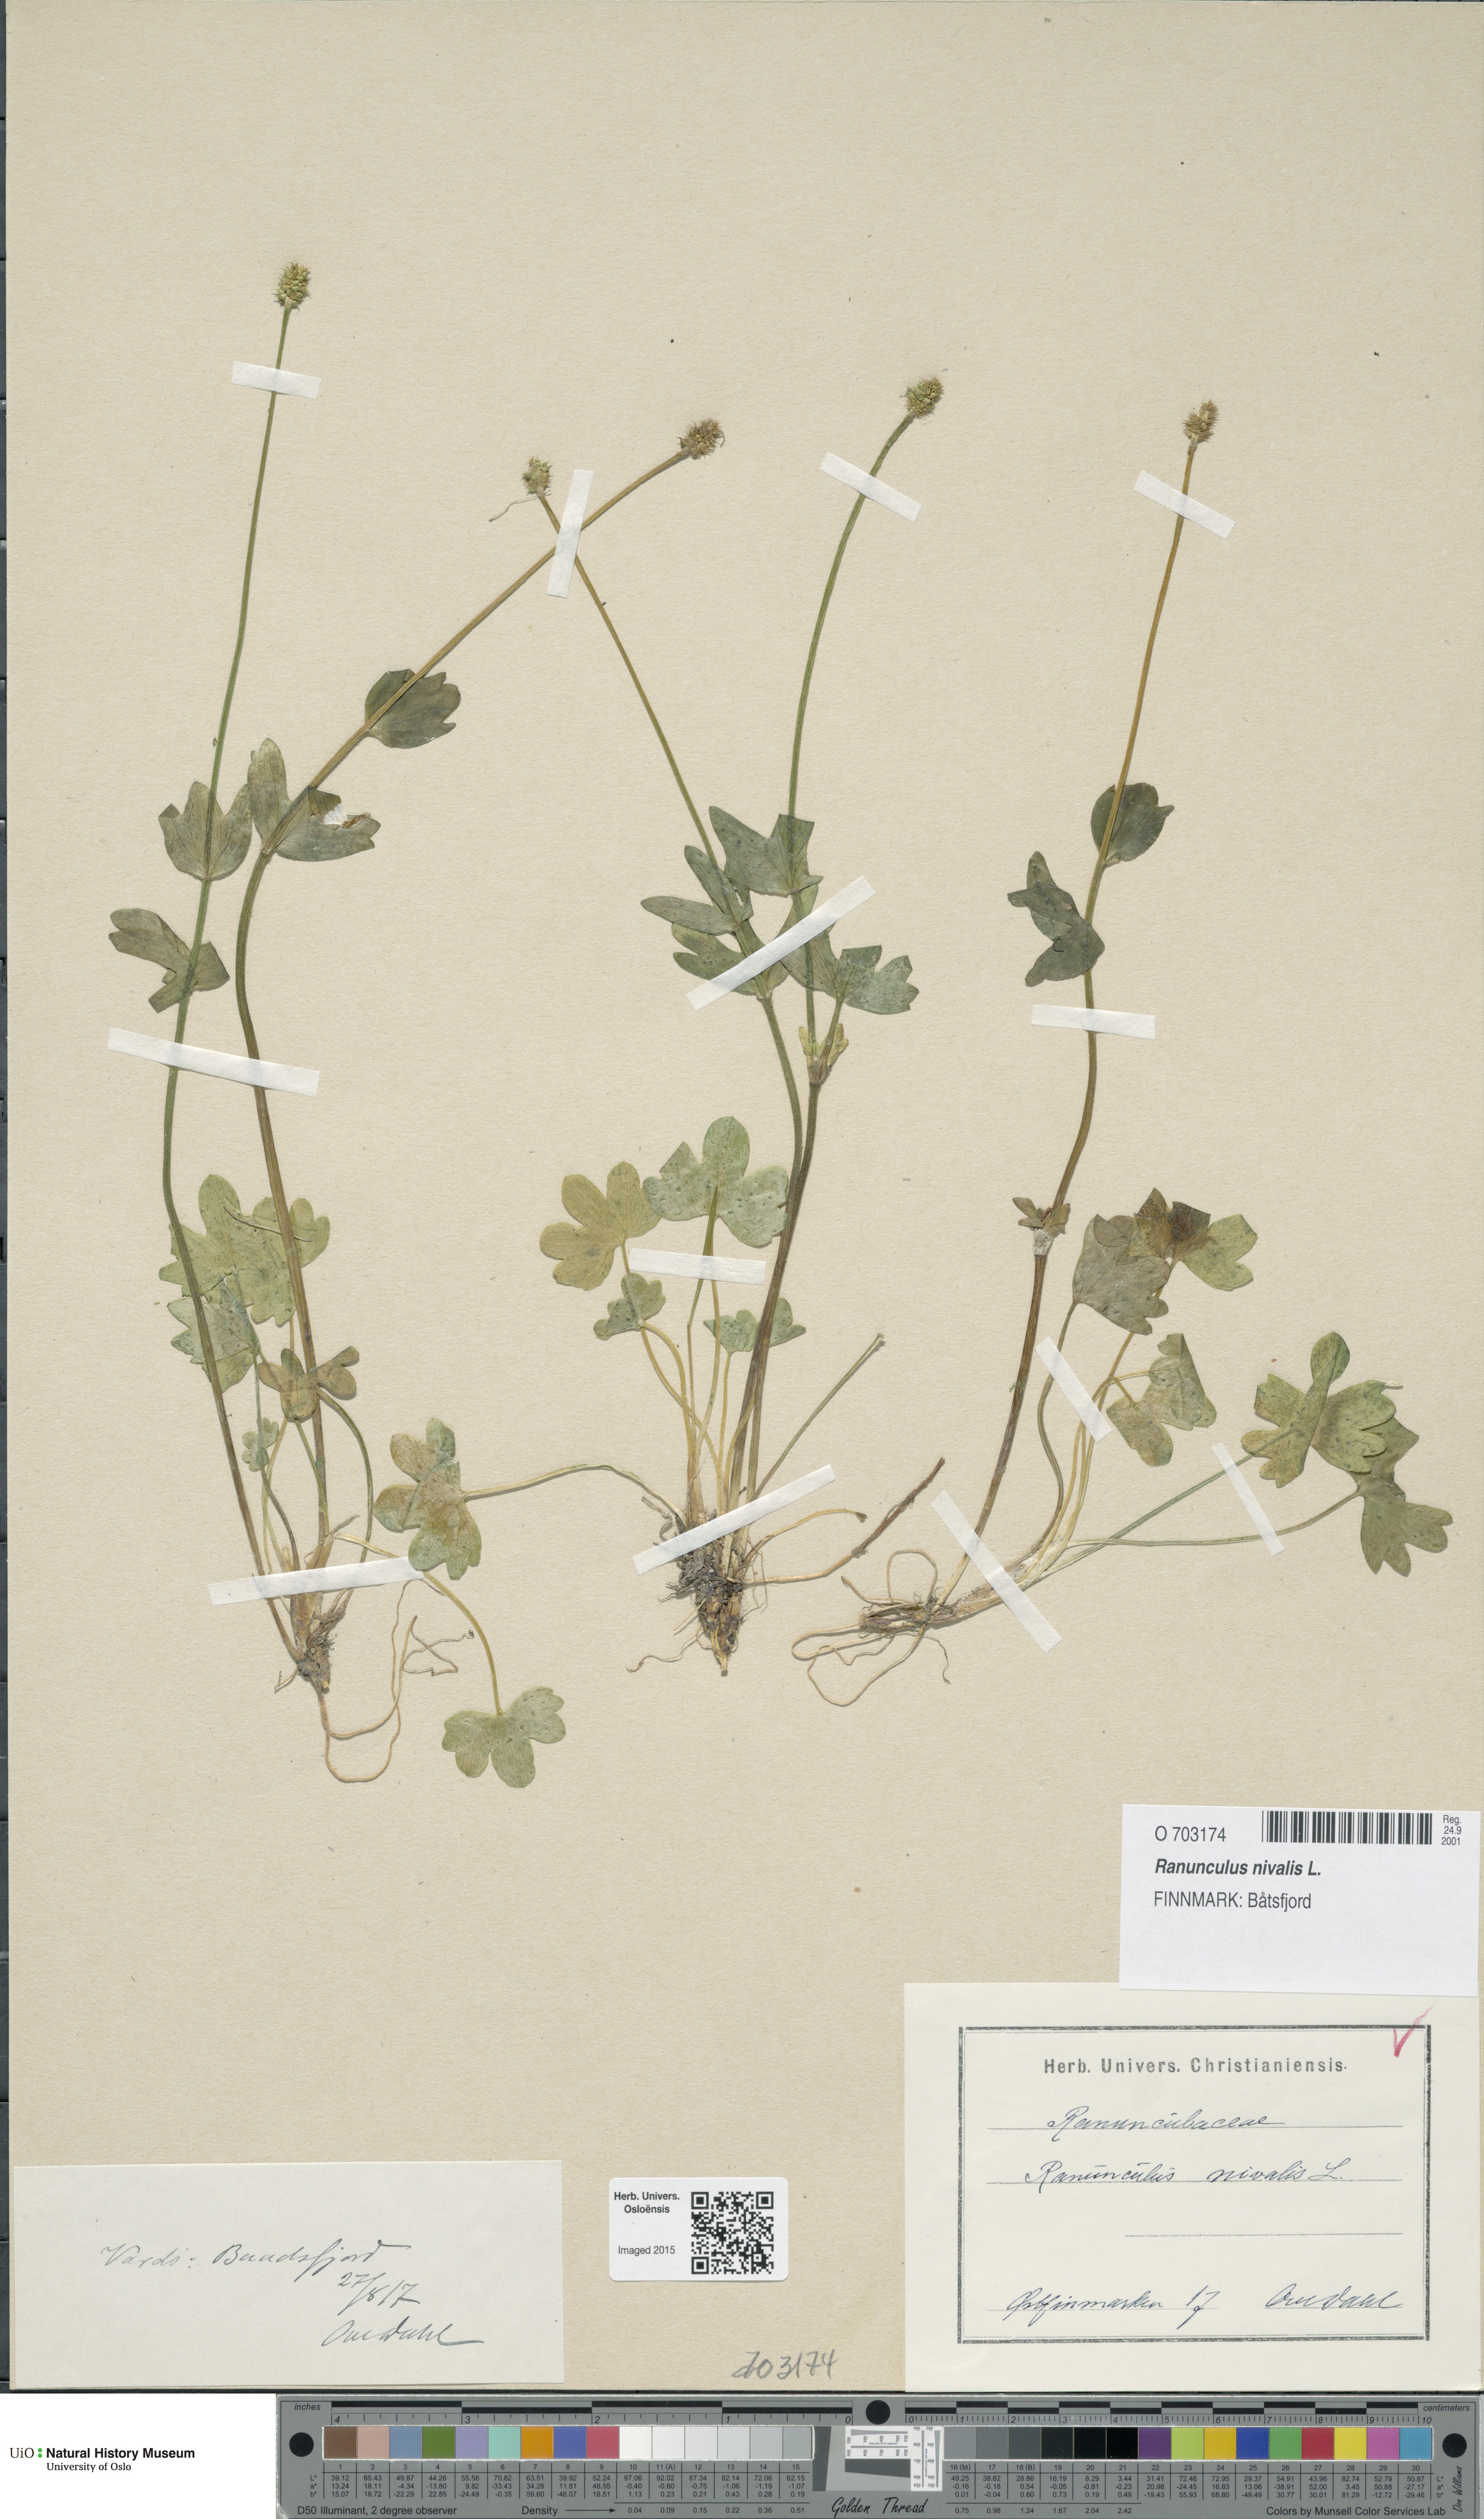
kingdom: Plantae
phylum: Tracheophyta
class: Magnoliopsida
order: Ranunculales
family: Ranunculaceae
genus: Ranunculus
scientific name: Ranunculus nivalis
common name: Snow buttercup
